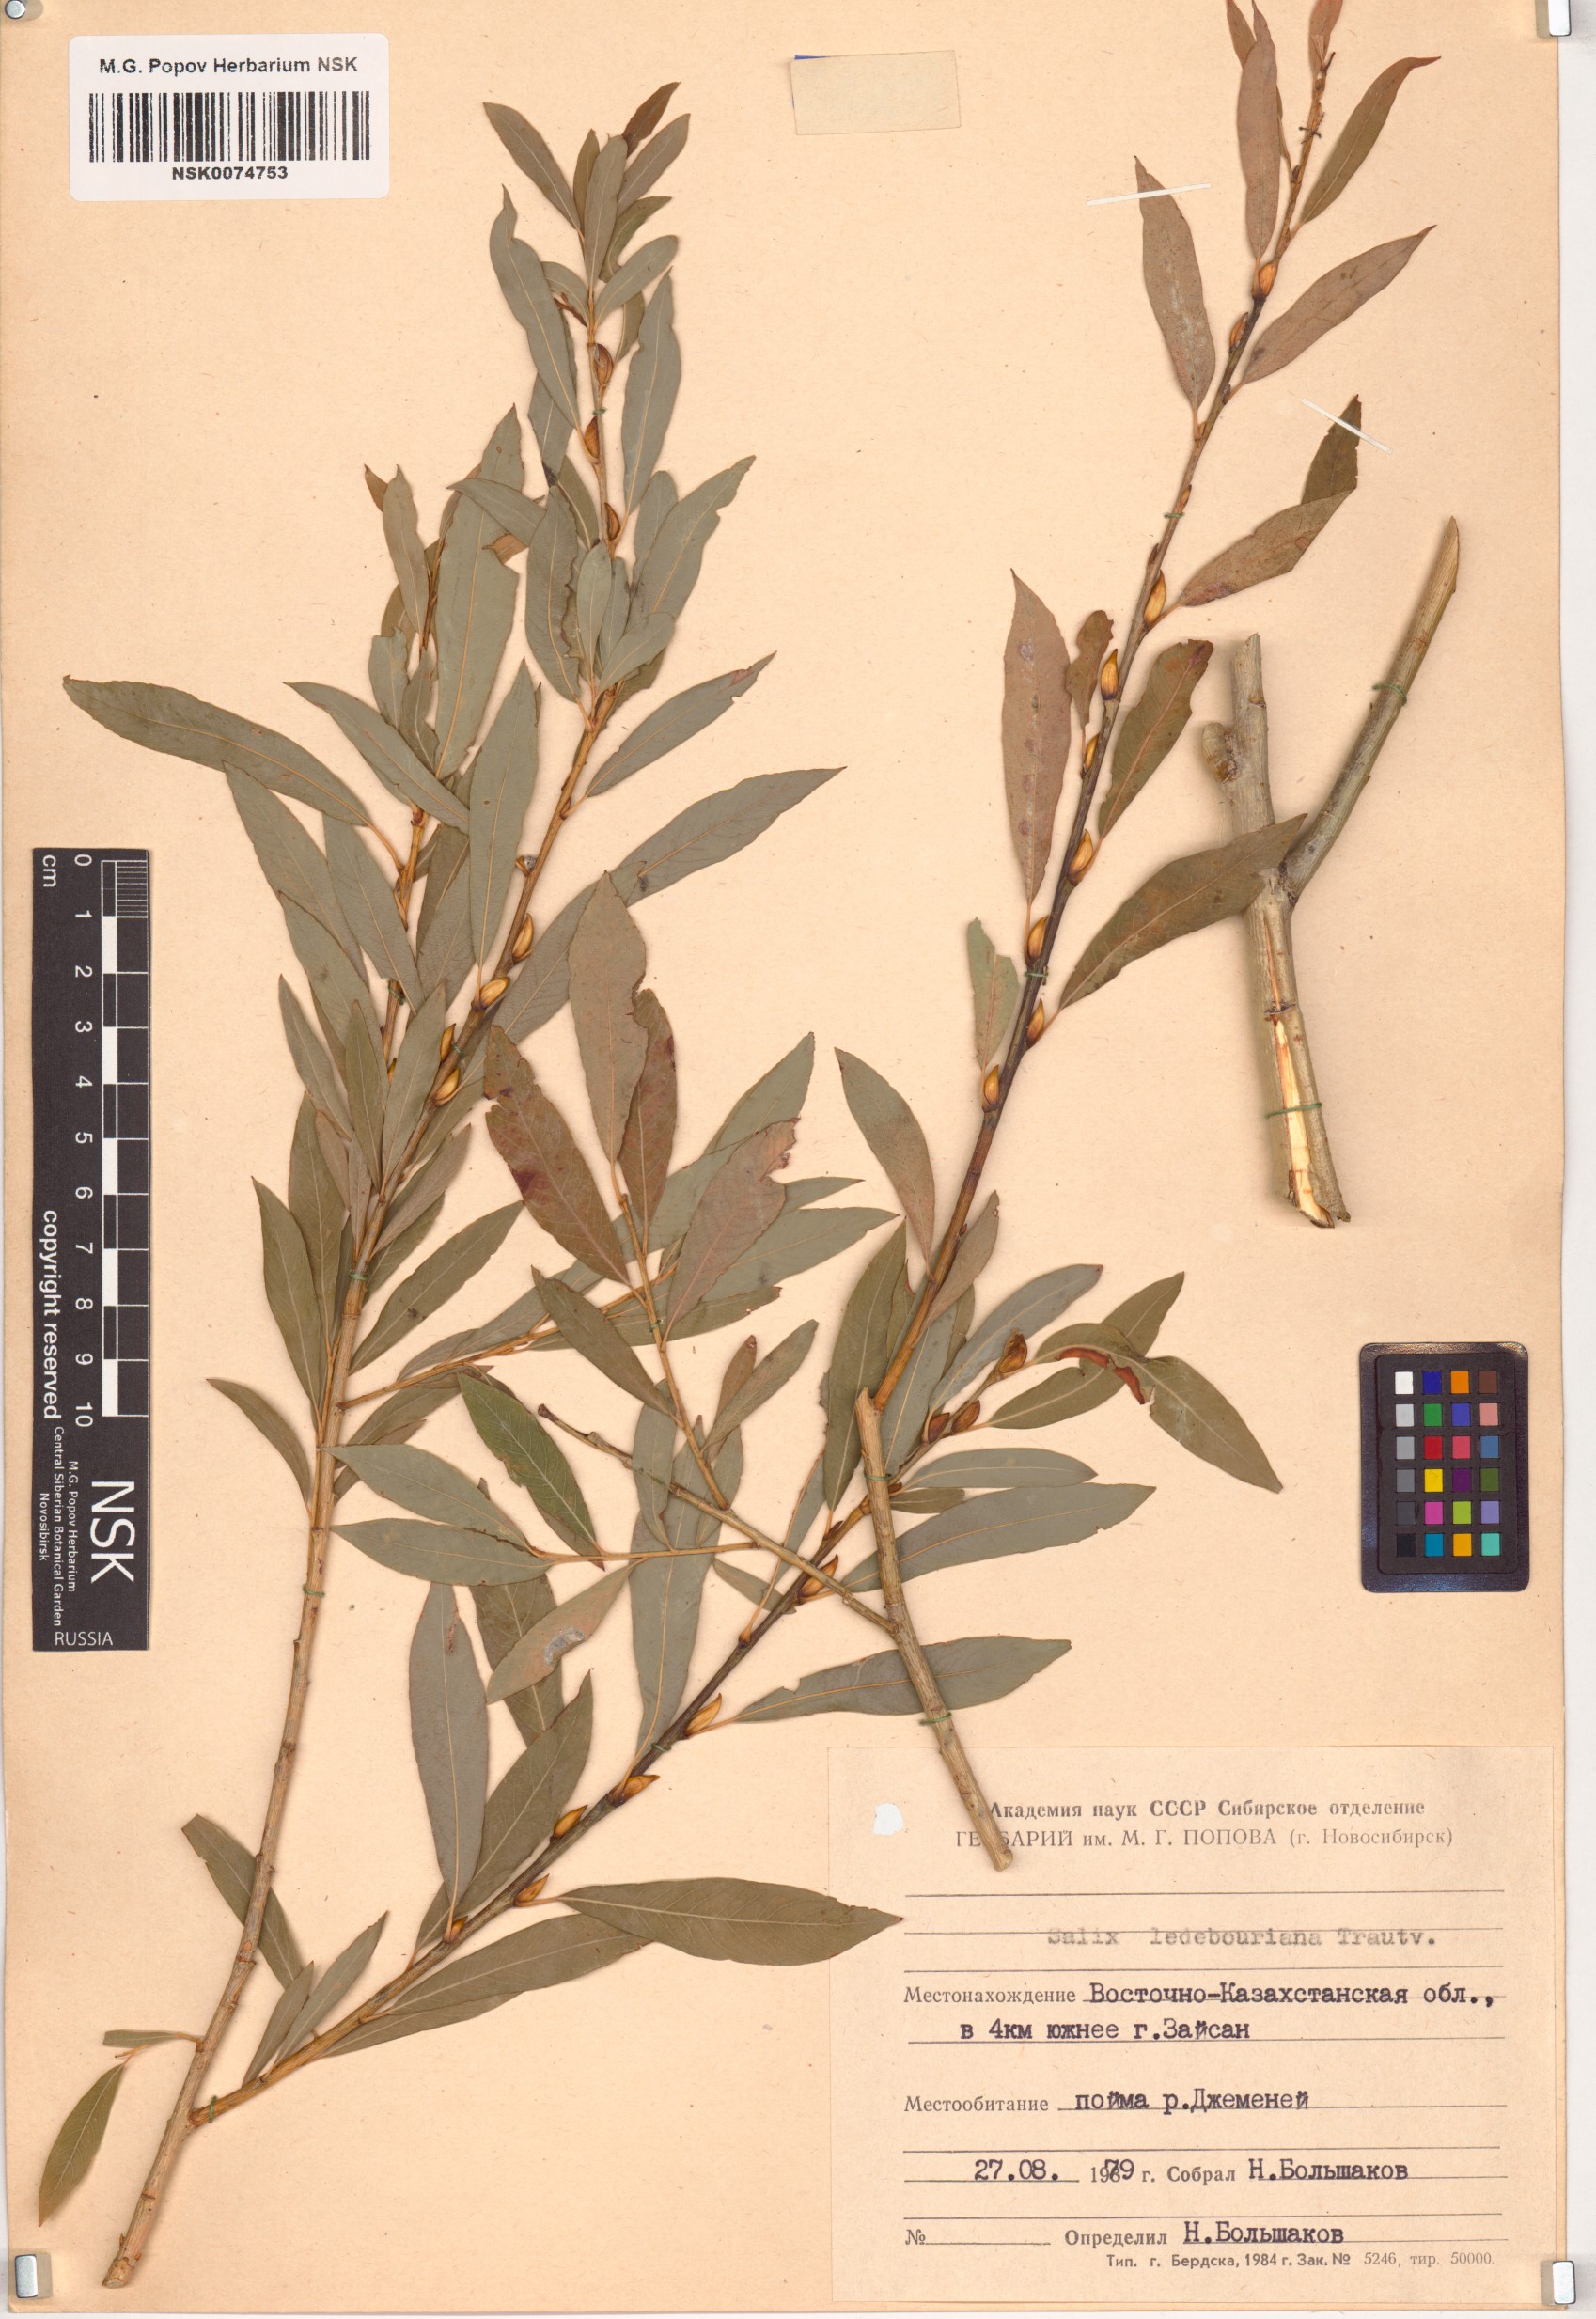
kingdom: Plantae
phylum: Tracheophyta
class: Magnoliopsida
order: Malpighiales
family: Salicaceae
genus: Salix
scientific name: Salix ledebouriana
